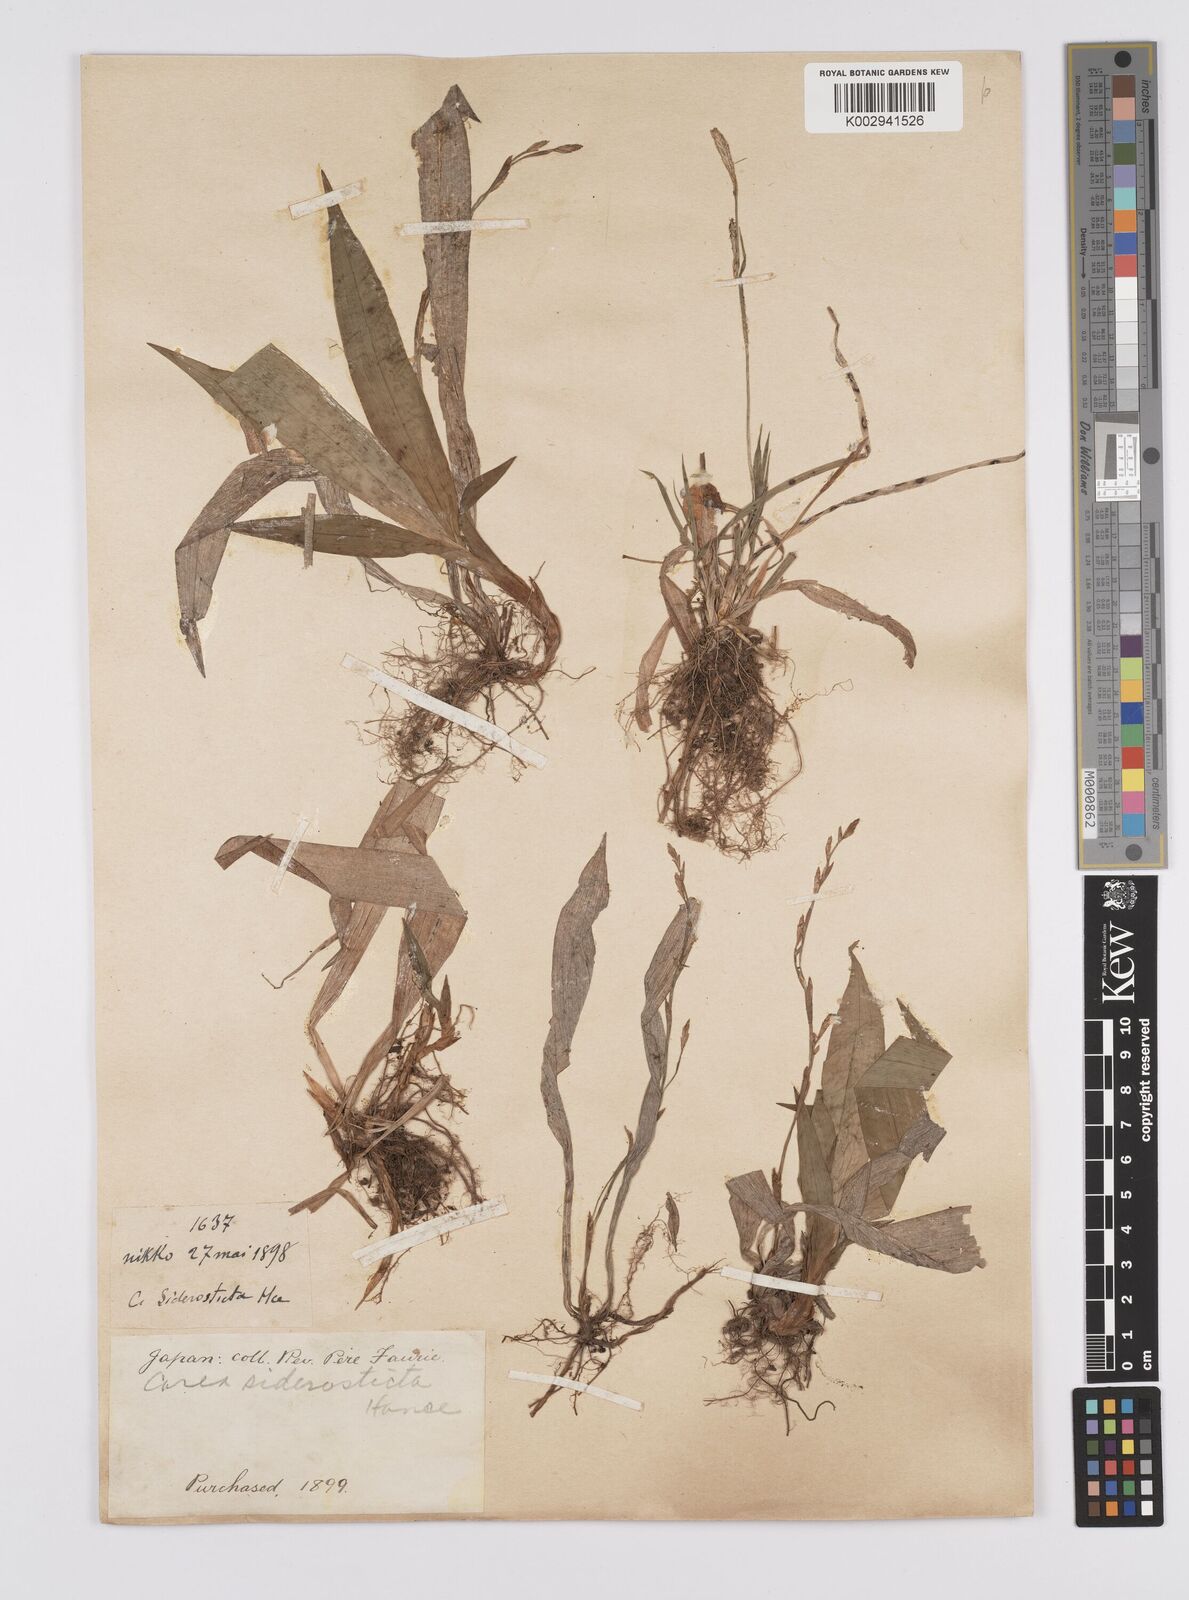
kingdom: Plantae
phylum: Tracheophyta
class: Liliopsida
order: Poales
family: Cyperaceae
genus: Carex
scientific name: Carex siderosticta
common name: Broadleaf sedge
